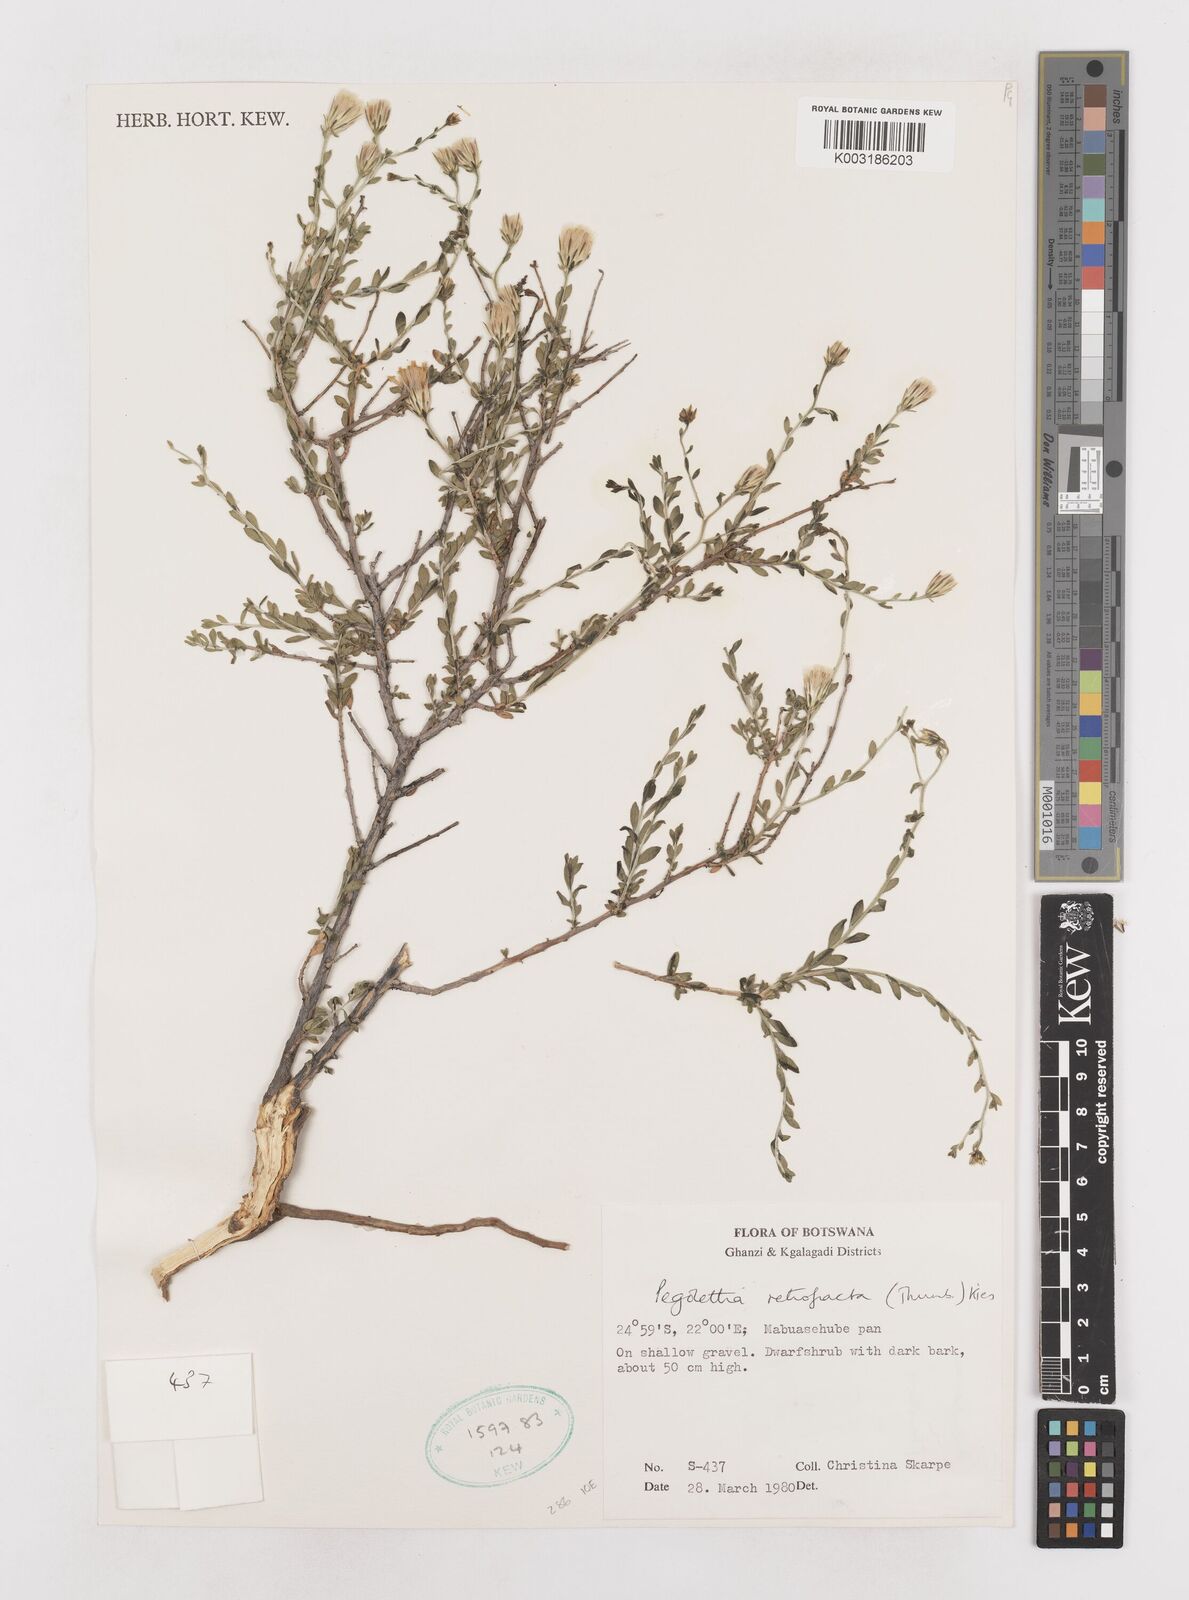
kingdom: Plantae
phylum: Tracheophyta
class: Magnoliopsida
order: Asterales
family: Asteraceae
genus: Pegolettia
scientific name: Pegolettia retrofracta
